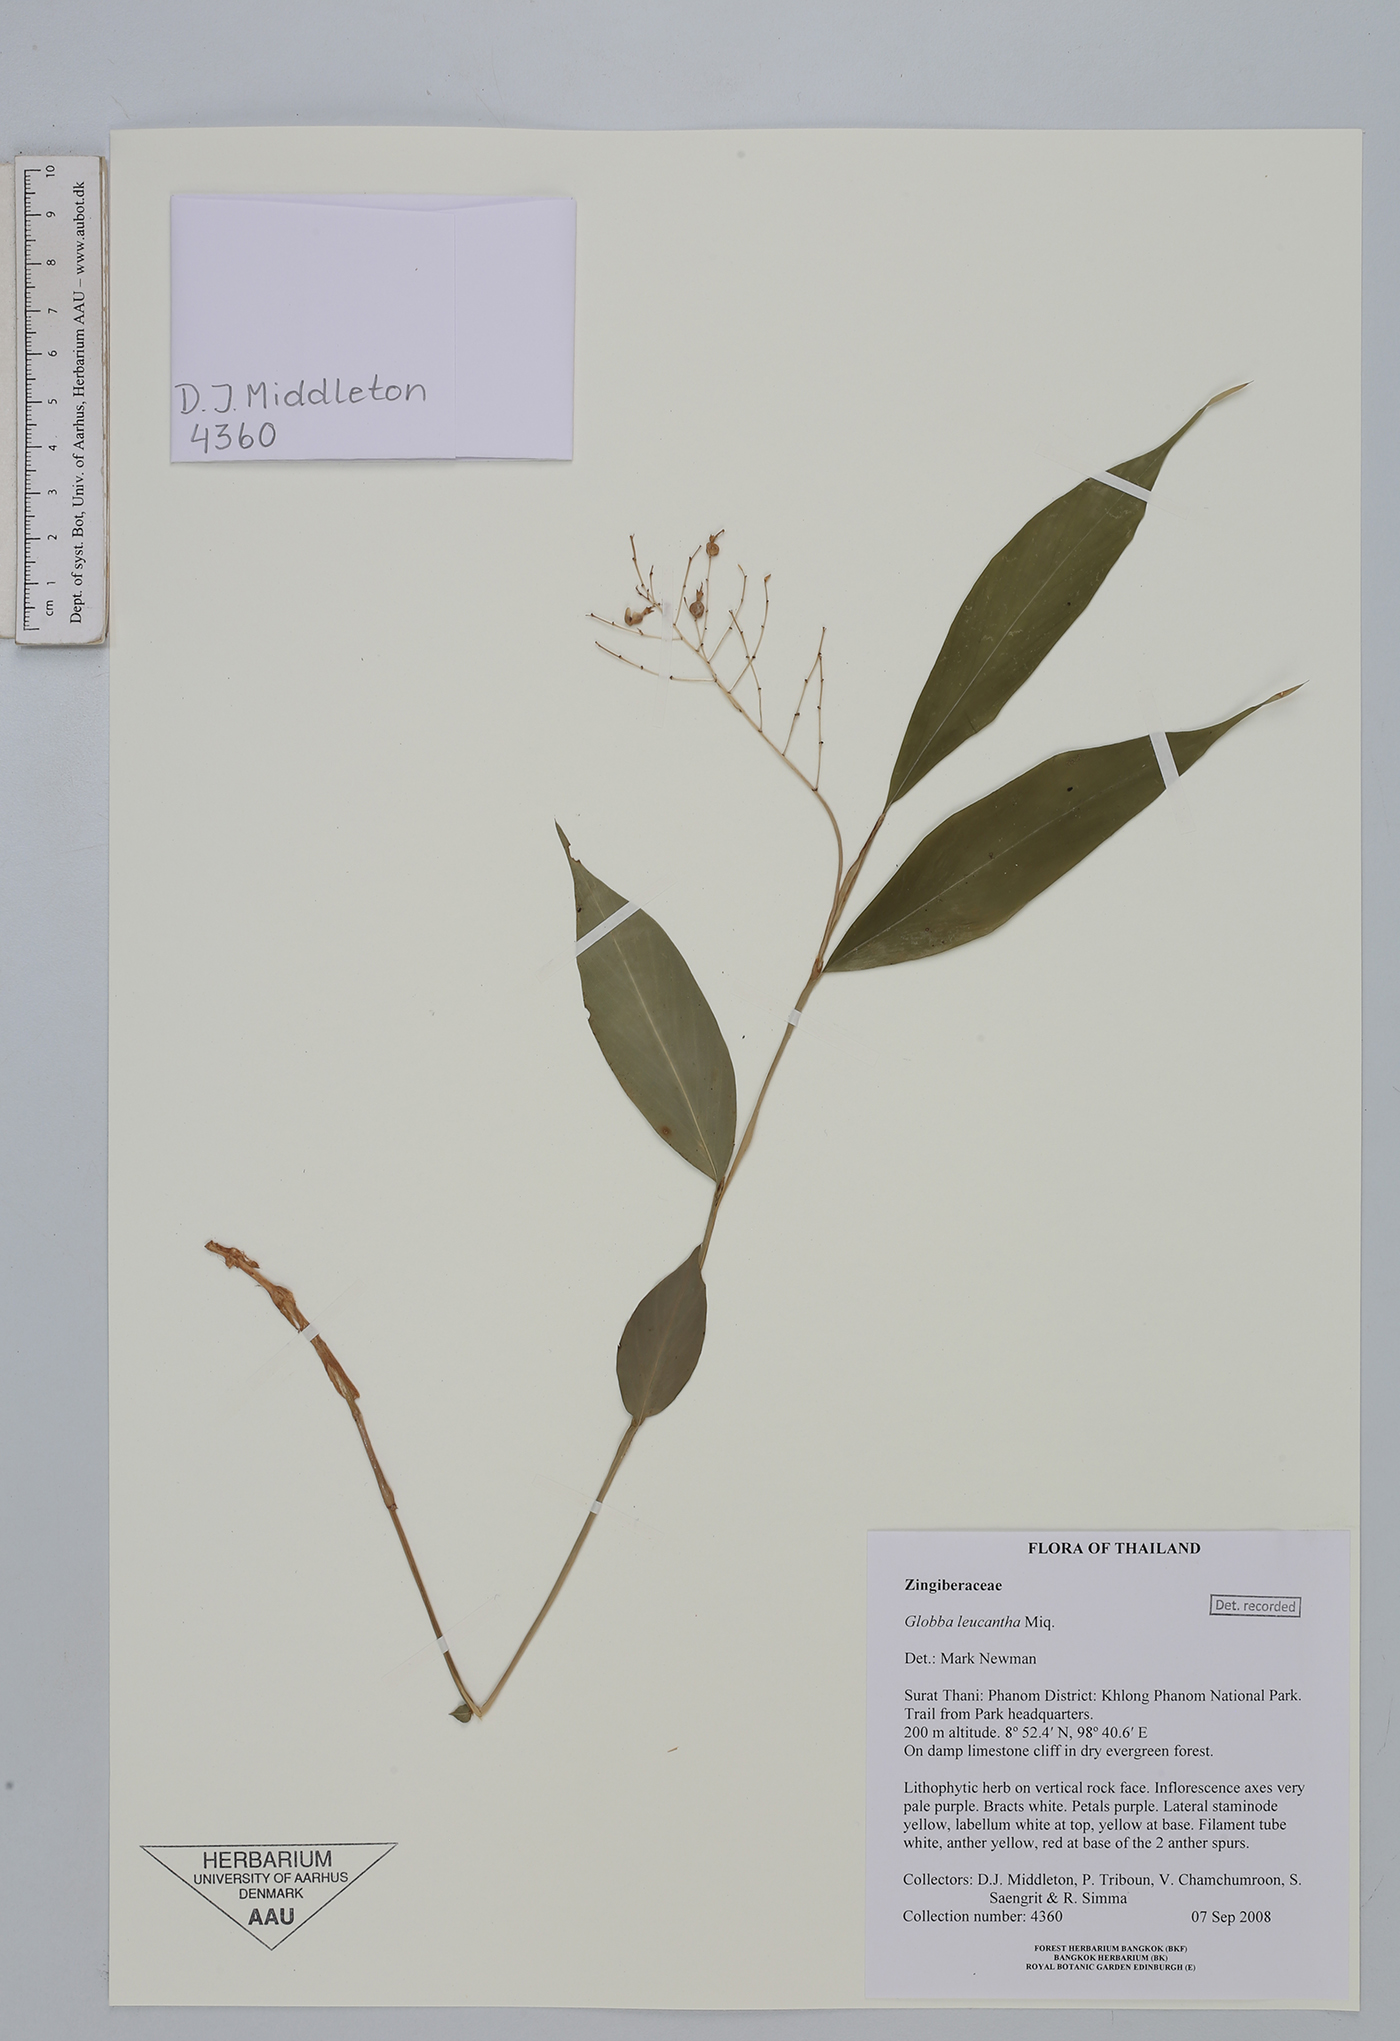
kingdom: Plantae
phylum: Tracheophyta
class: Liliopsida
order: Zingiberales
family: Zingiberaceae
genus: Globba
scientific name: Globba leucantha
